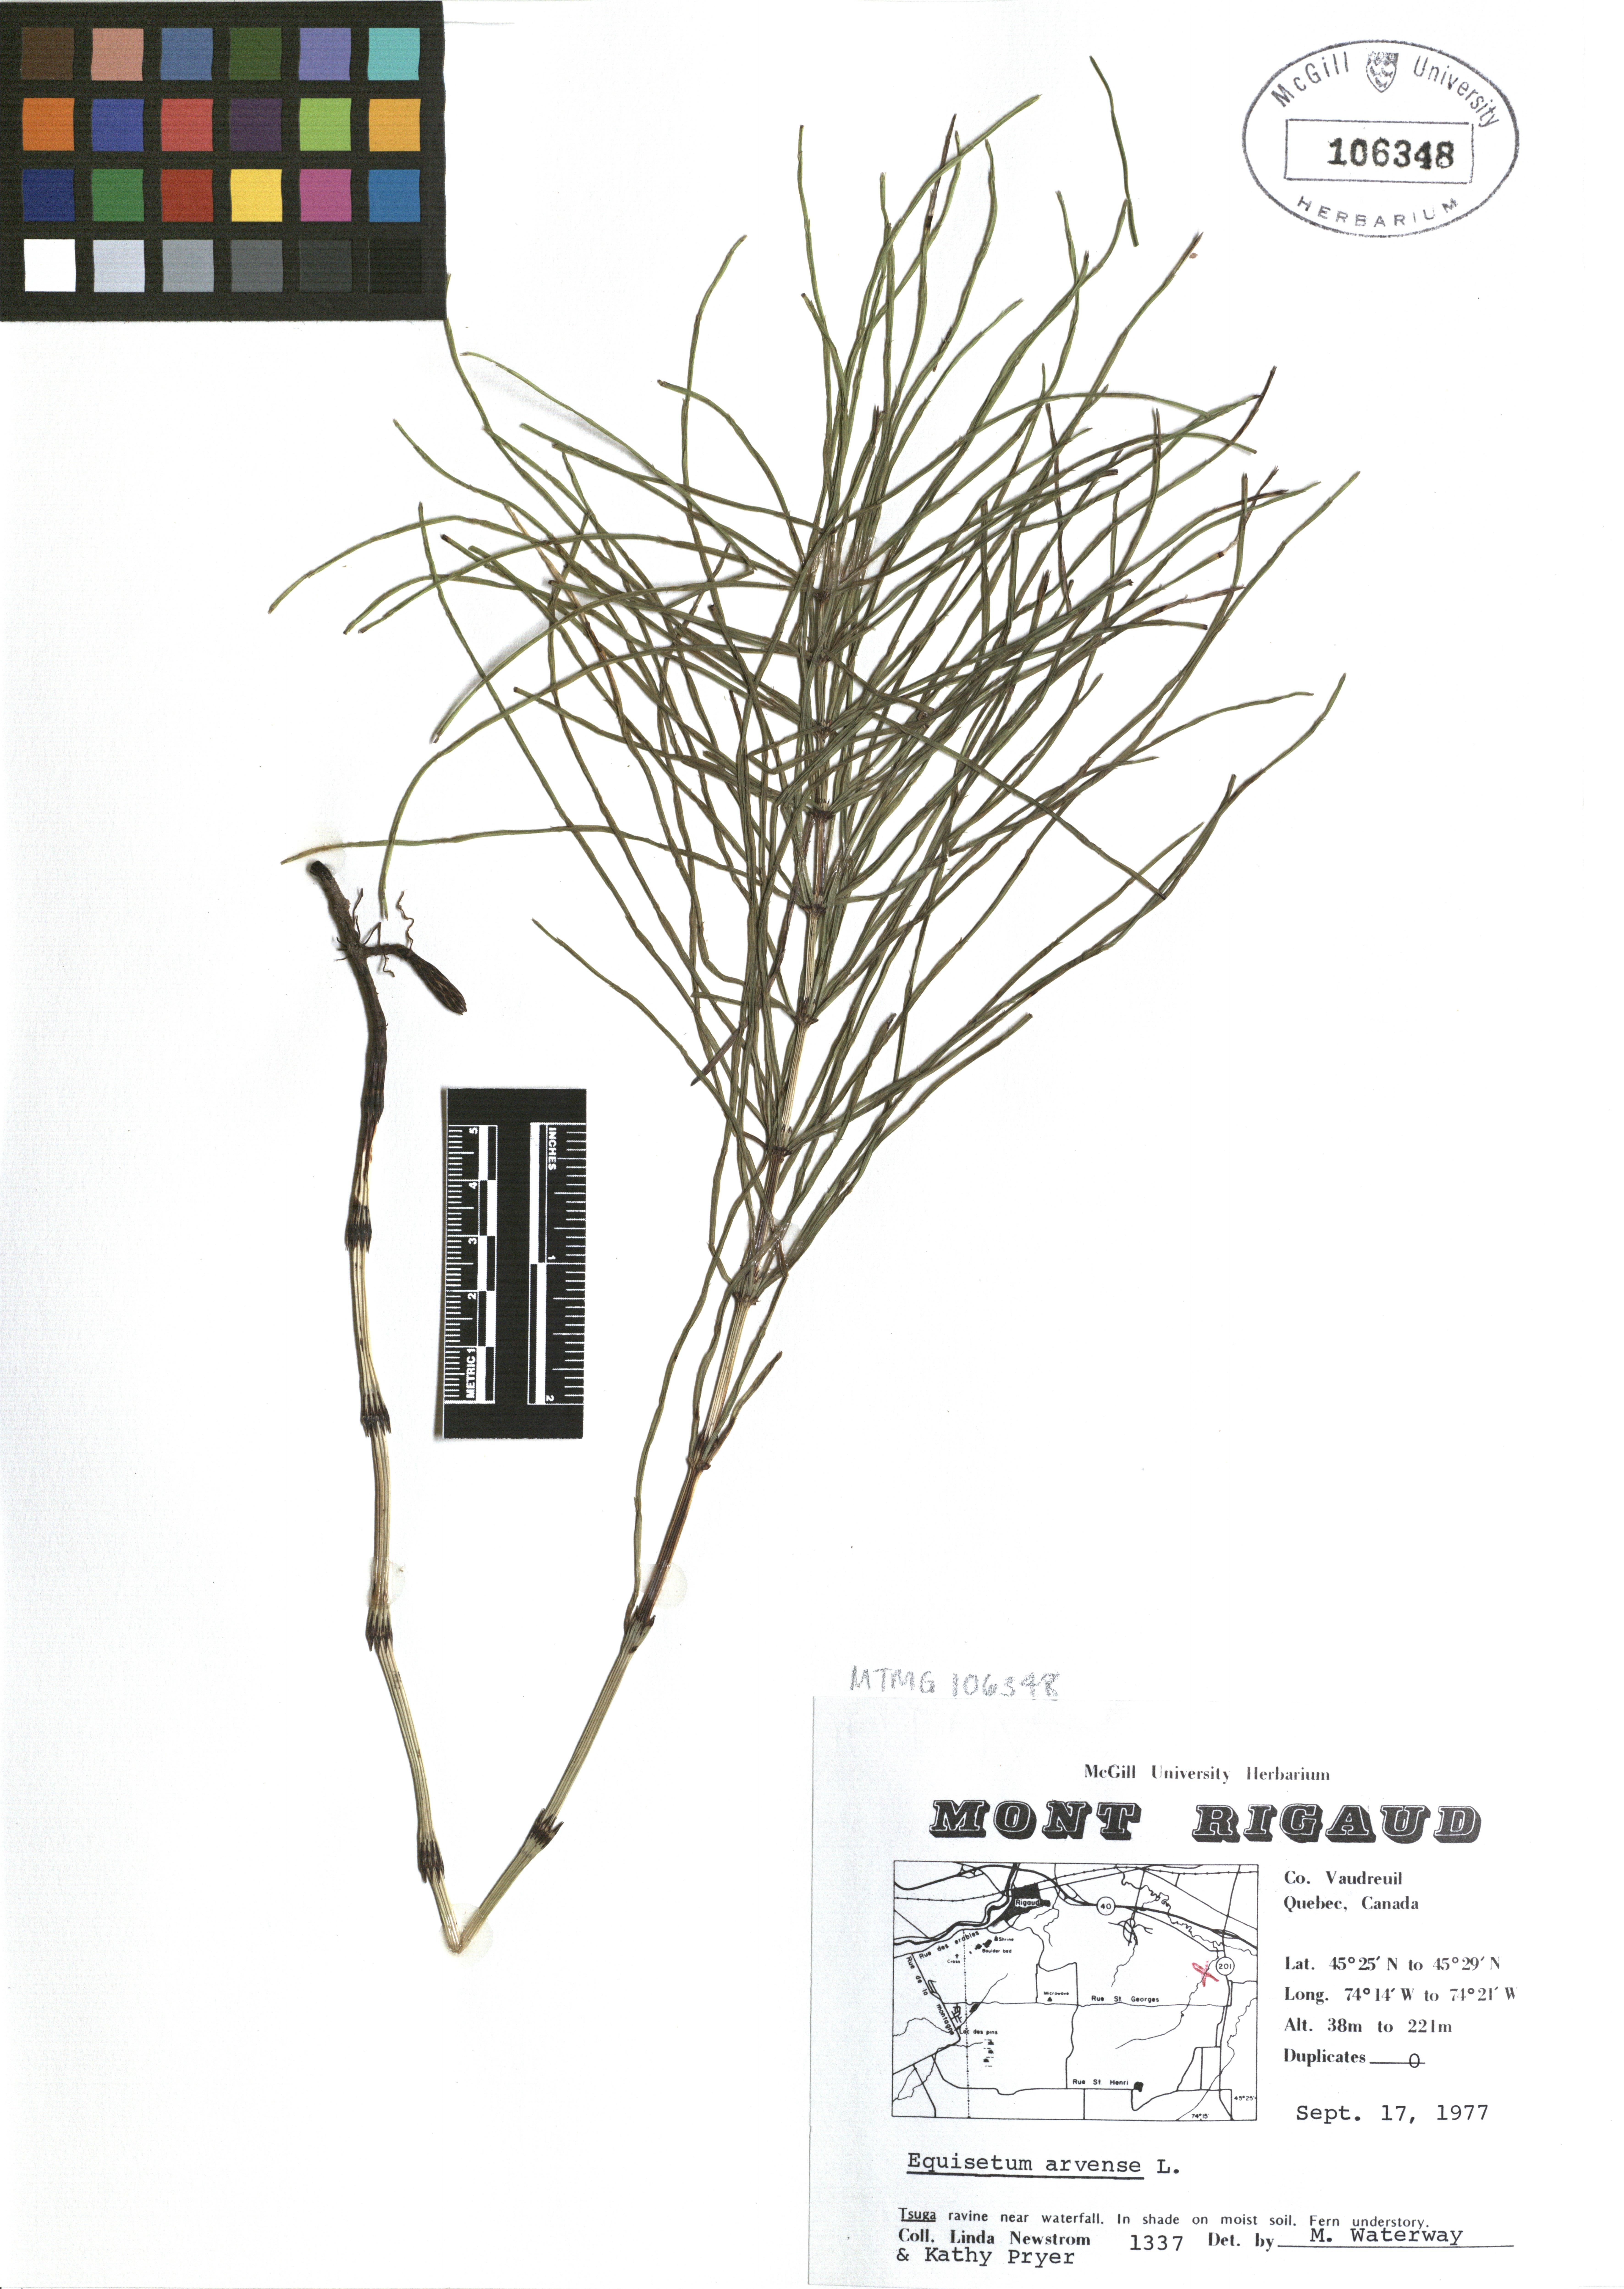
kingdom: Plantae
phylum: Tracheophyta
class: Polypodiopsida
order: Equisetales
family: Equisetaceae
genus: Equisetum
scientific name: Equisetum arvense
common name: Field horsetail
